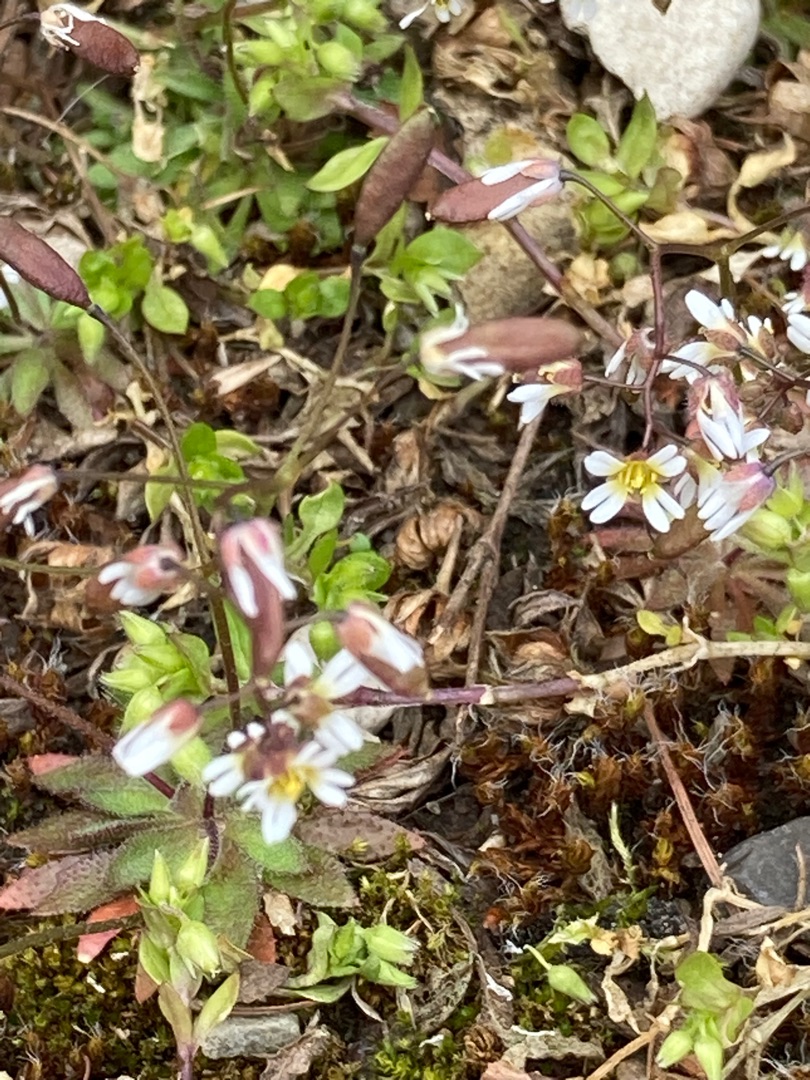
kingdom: Plantae
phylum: Tracheophyta
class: Magnoliopsida
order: Brassicales
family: Brassicaceae
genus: Draba
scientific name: Draba verna
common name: Vår-gæslingeblomst
